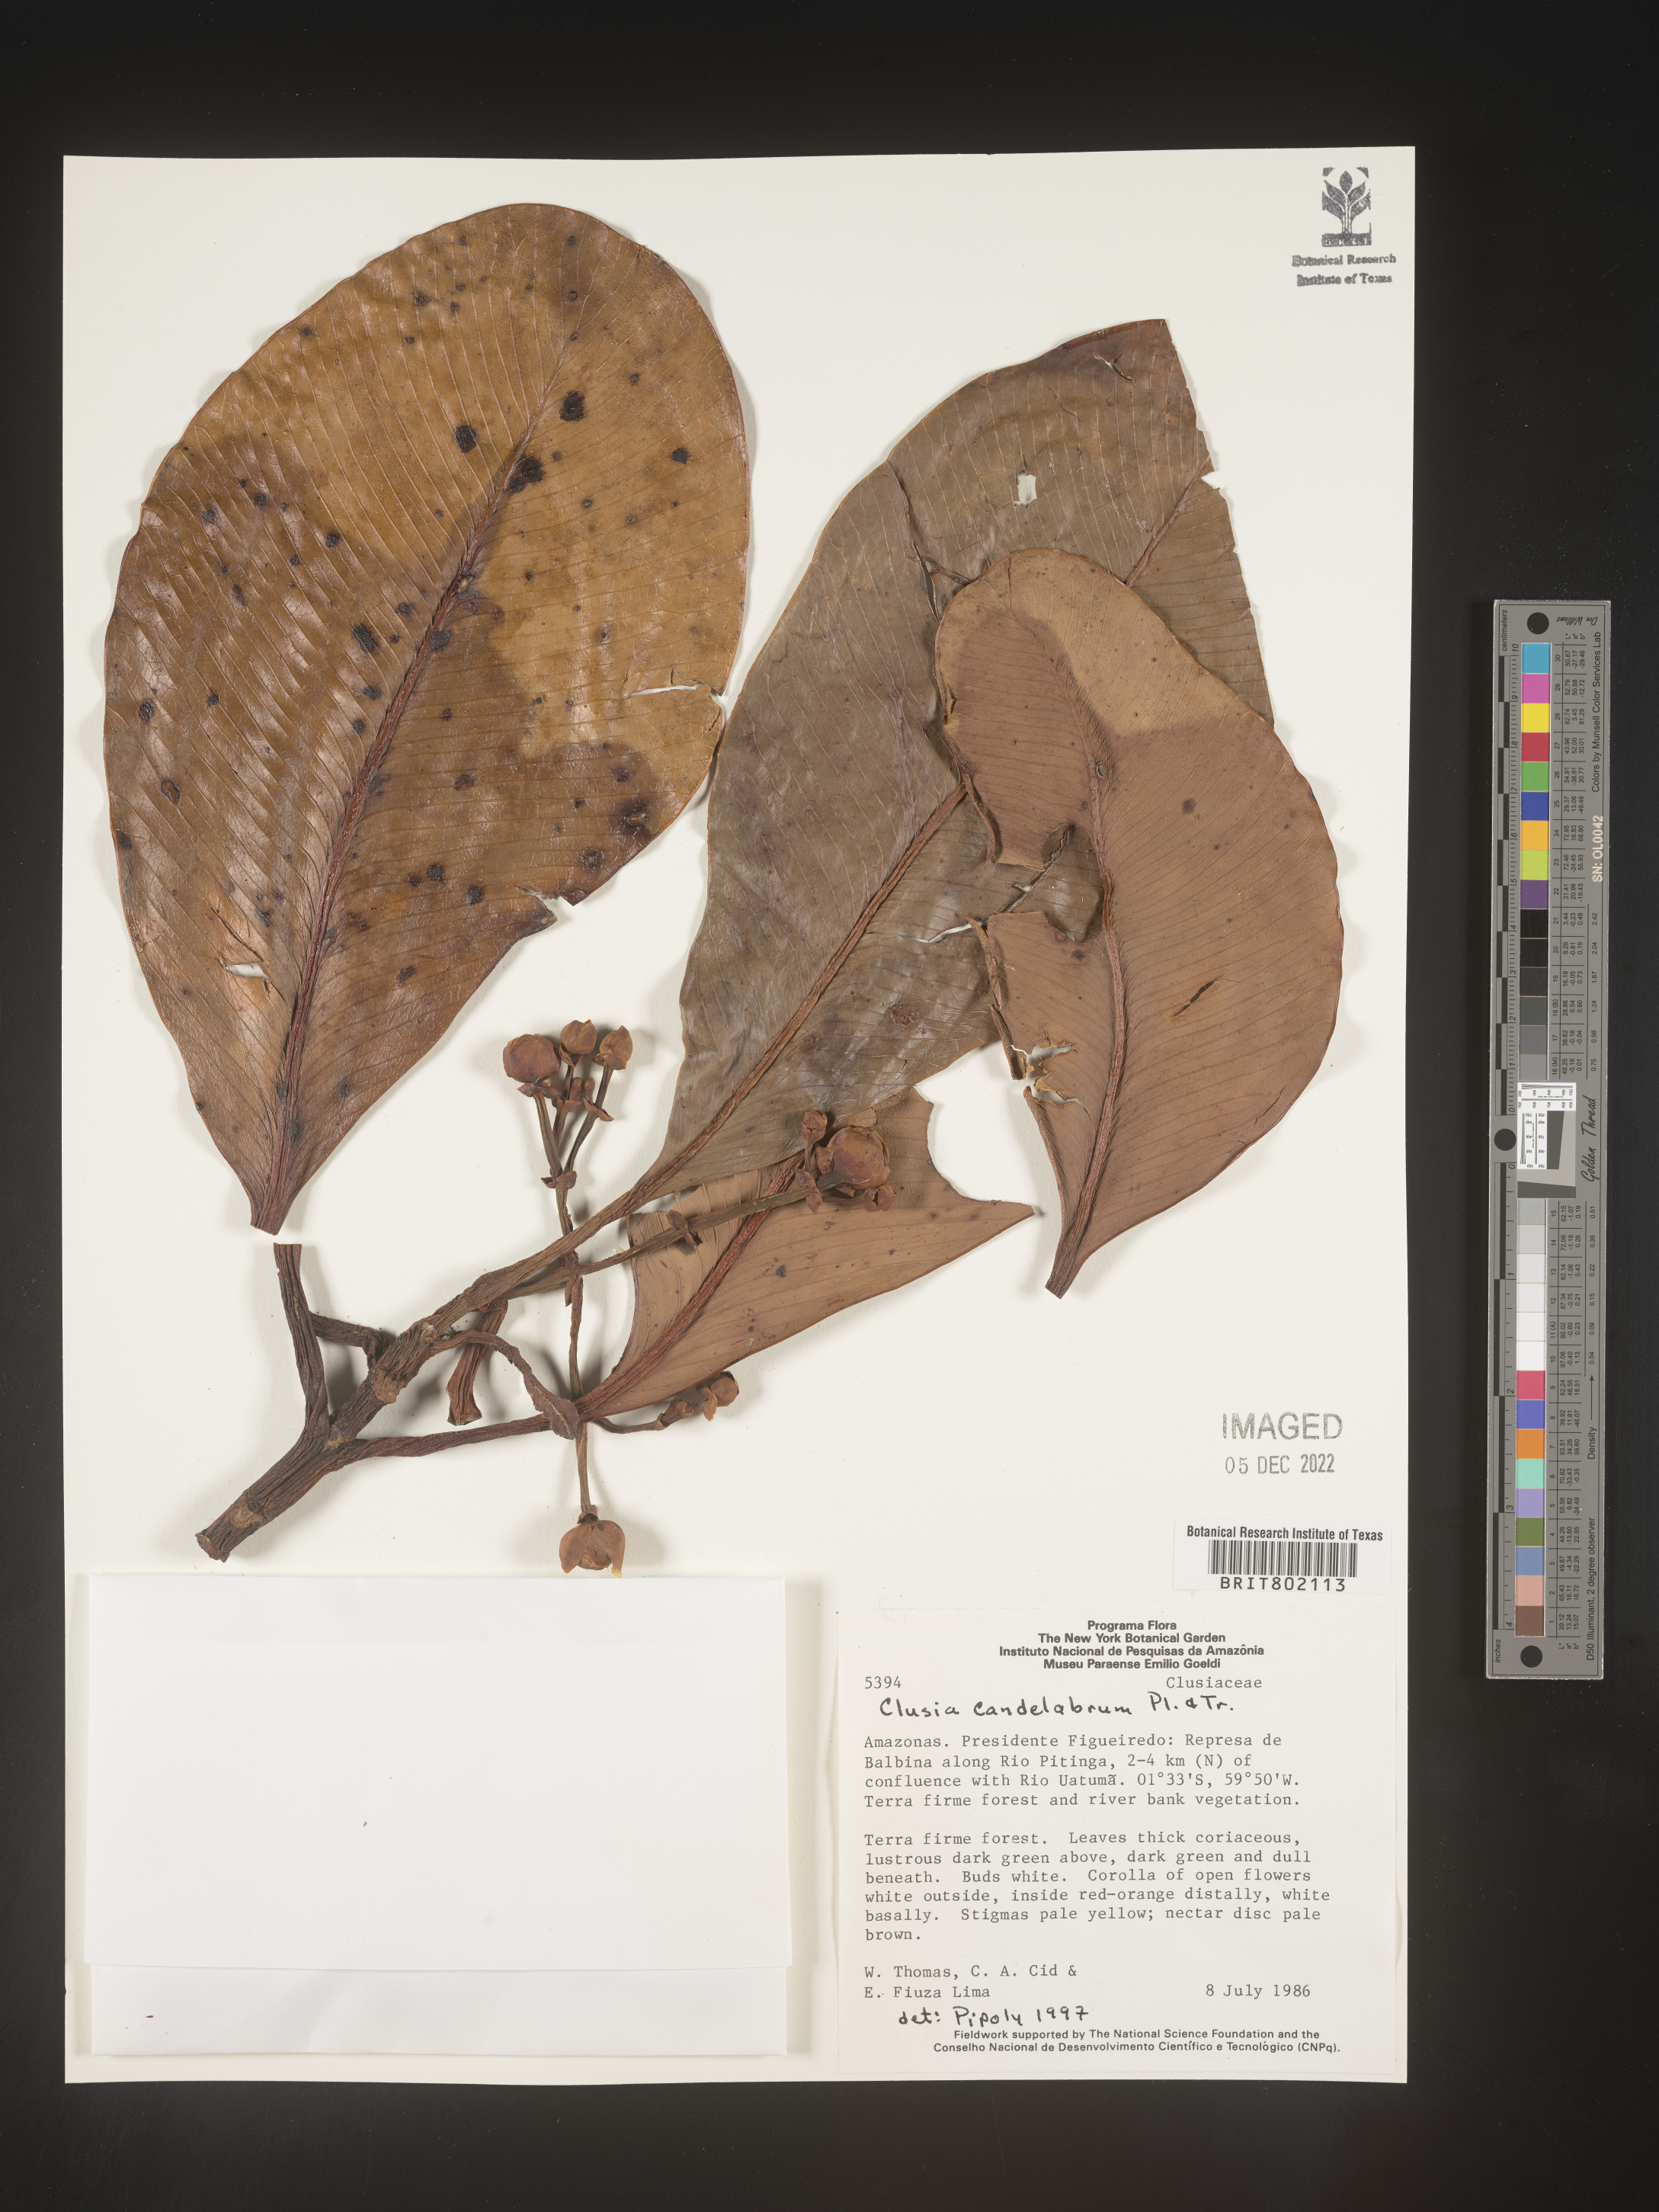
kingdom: Plantae
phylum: Tracheophyta
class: Magnoliopsida
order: Malpighiales
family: Clusiaceae
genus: Clusia
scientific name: Clusia candelabrum
